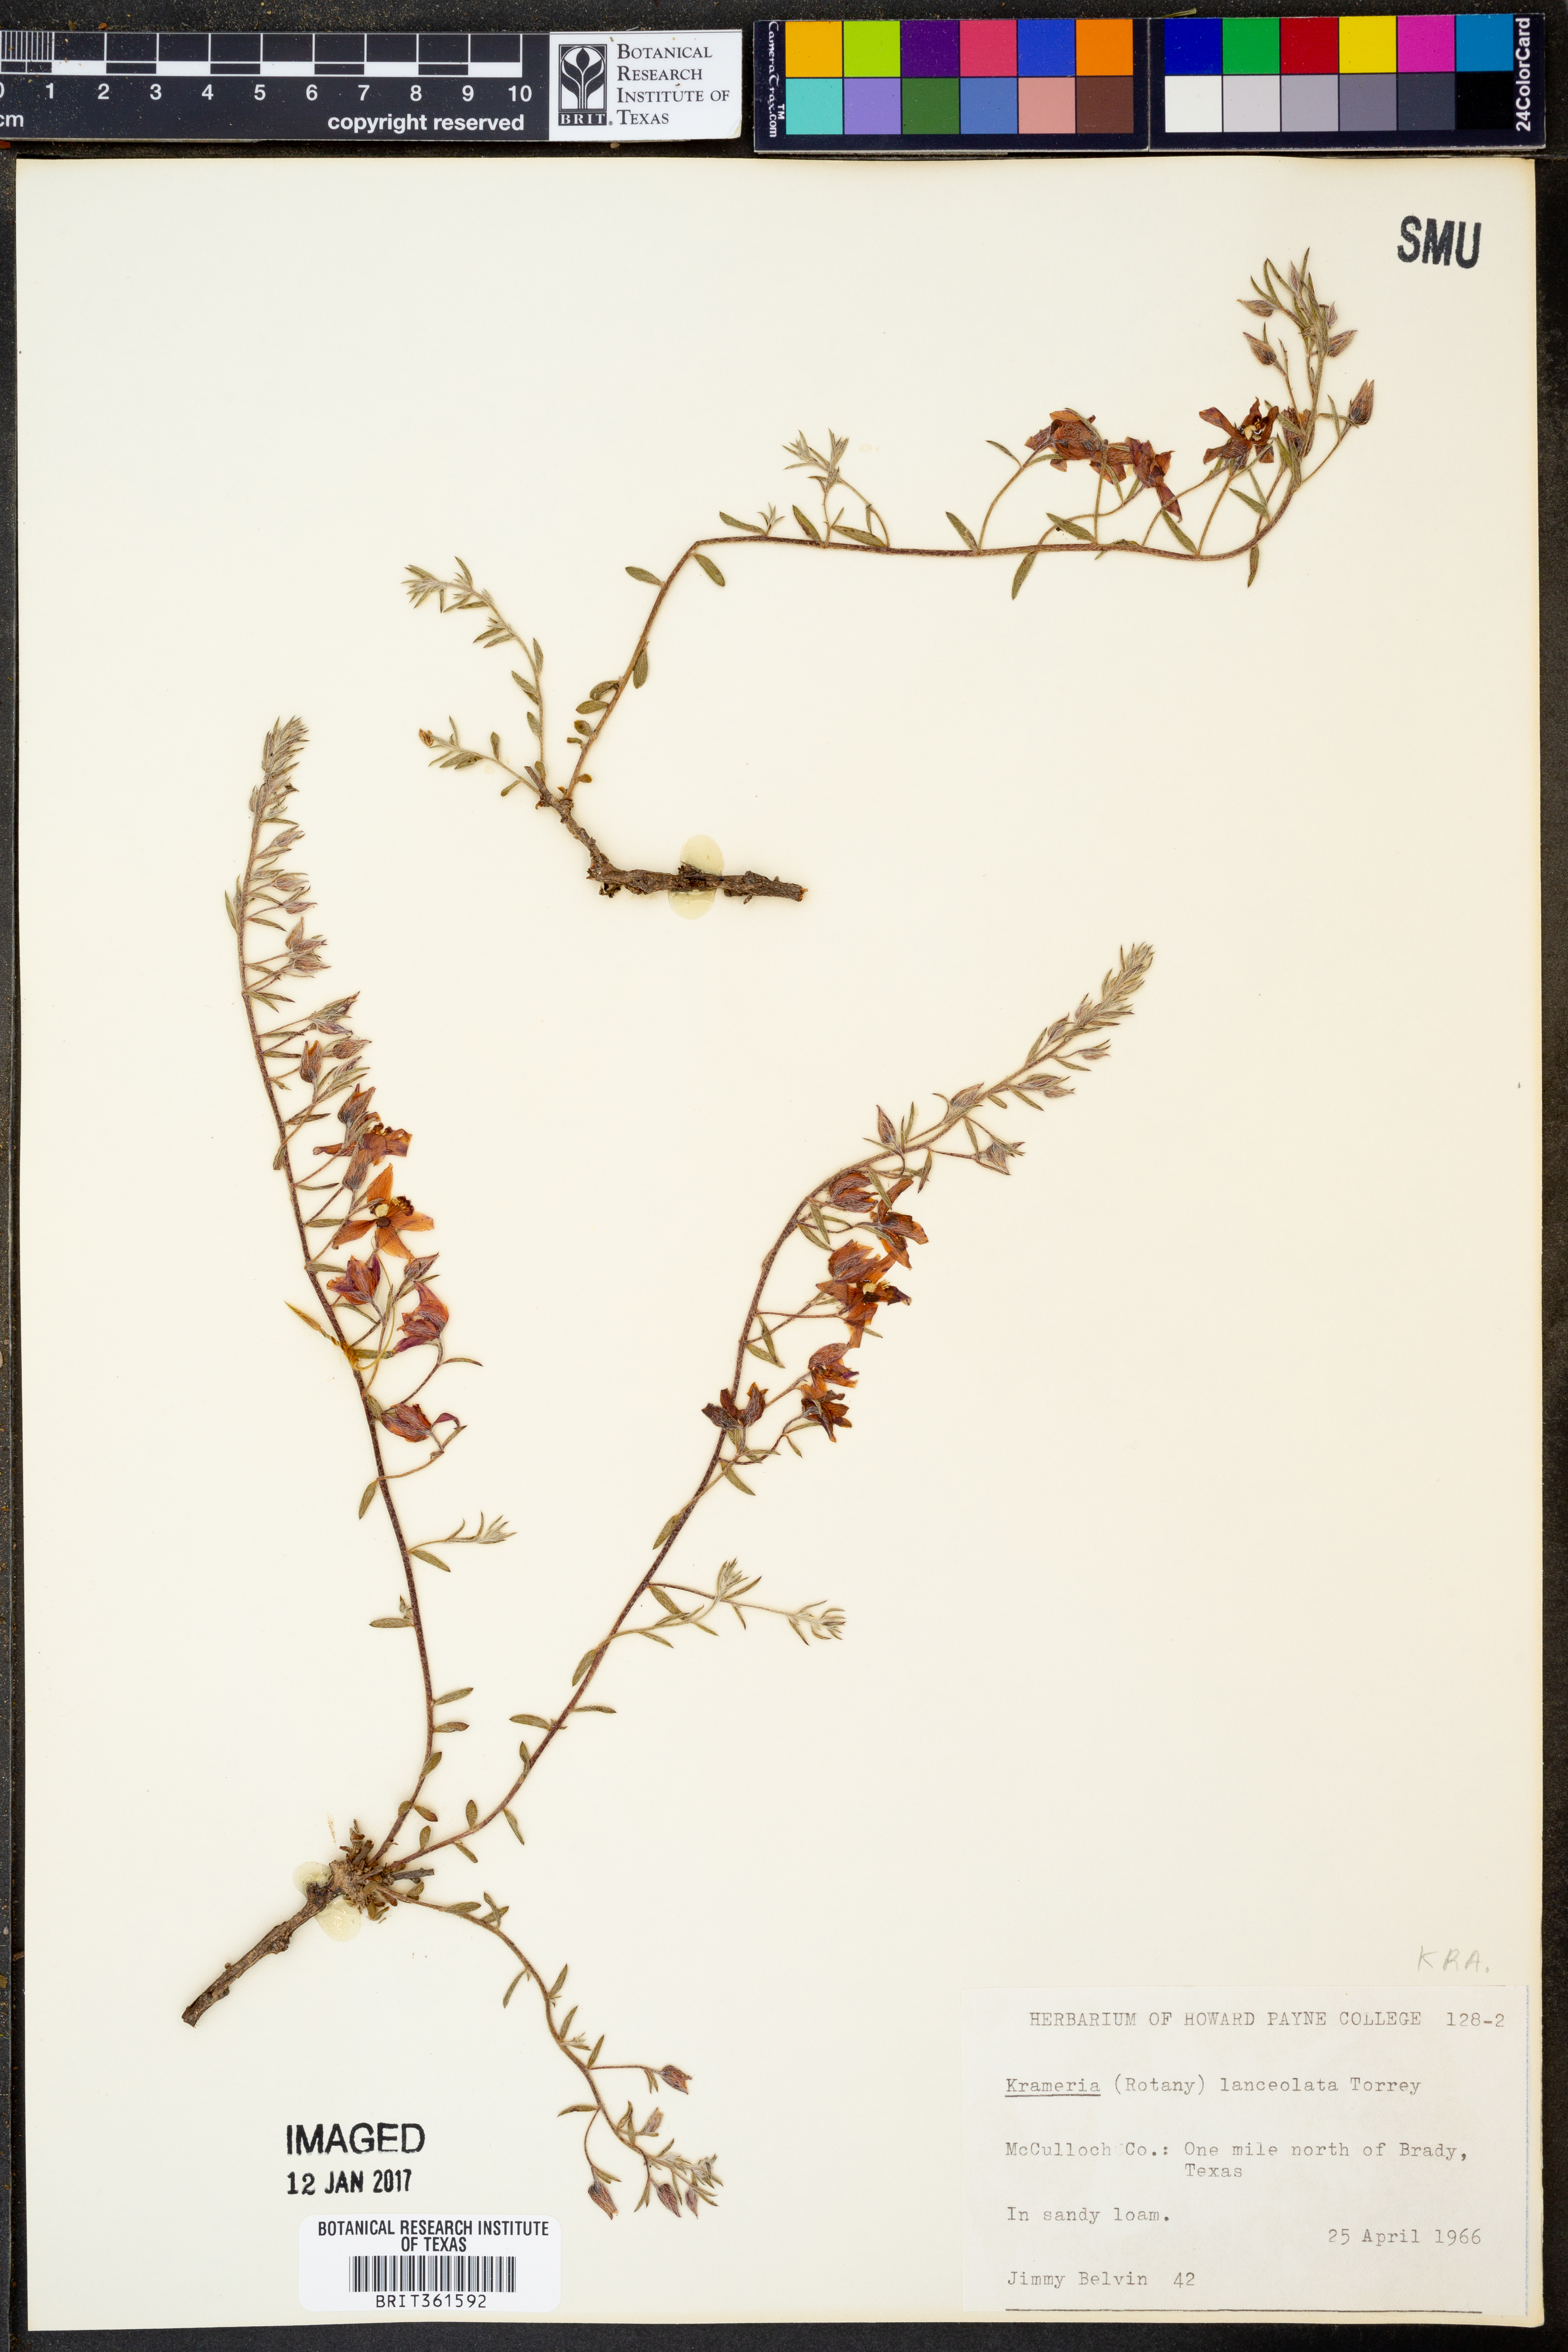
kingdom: Plantae
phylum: Tracheophyta
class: Magnoliopsida
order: Zygophyllales
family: Krameriaceae
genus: Krameria
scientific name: Krameria lanceolata
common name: Ratany
